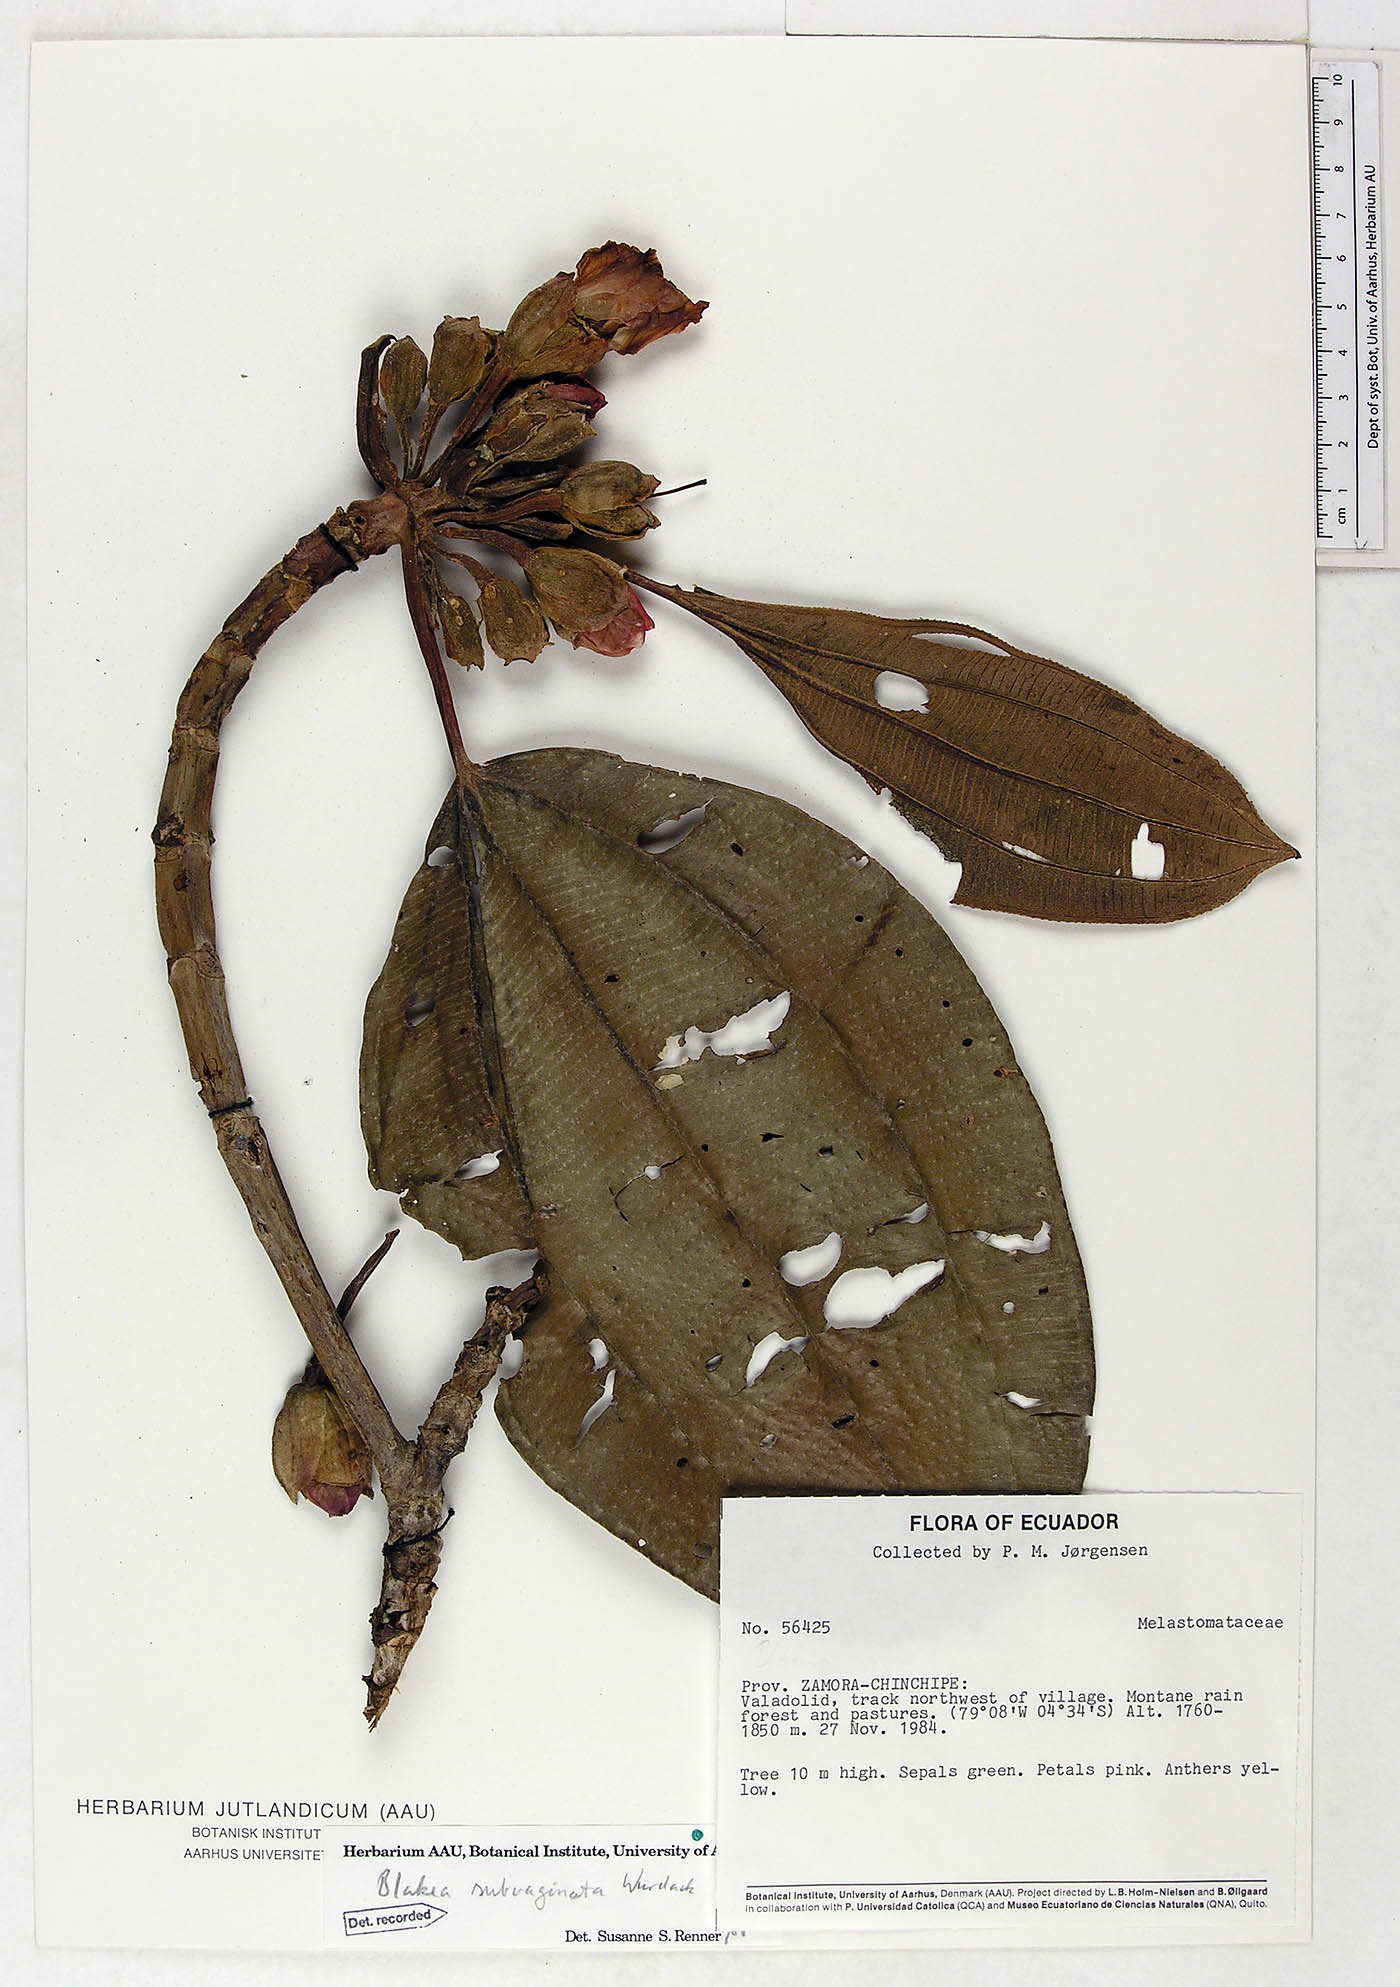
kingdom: Plantae
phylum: Tracheophyta
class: Magnoliopsida
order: Myrtales
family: Melastomataceae
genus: Blakea
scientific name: Blakea subvaginata
